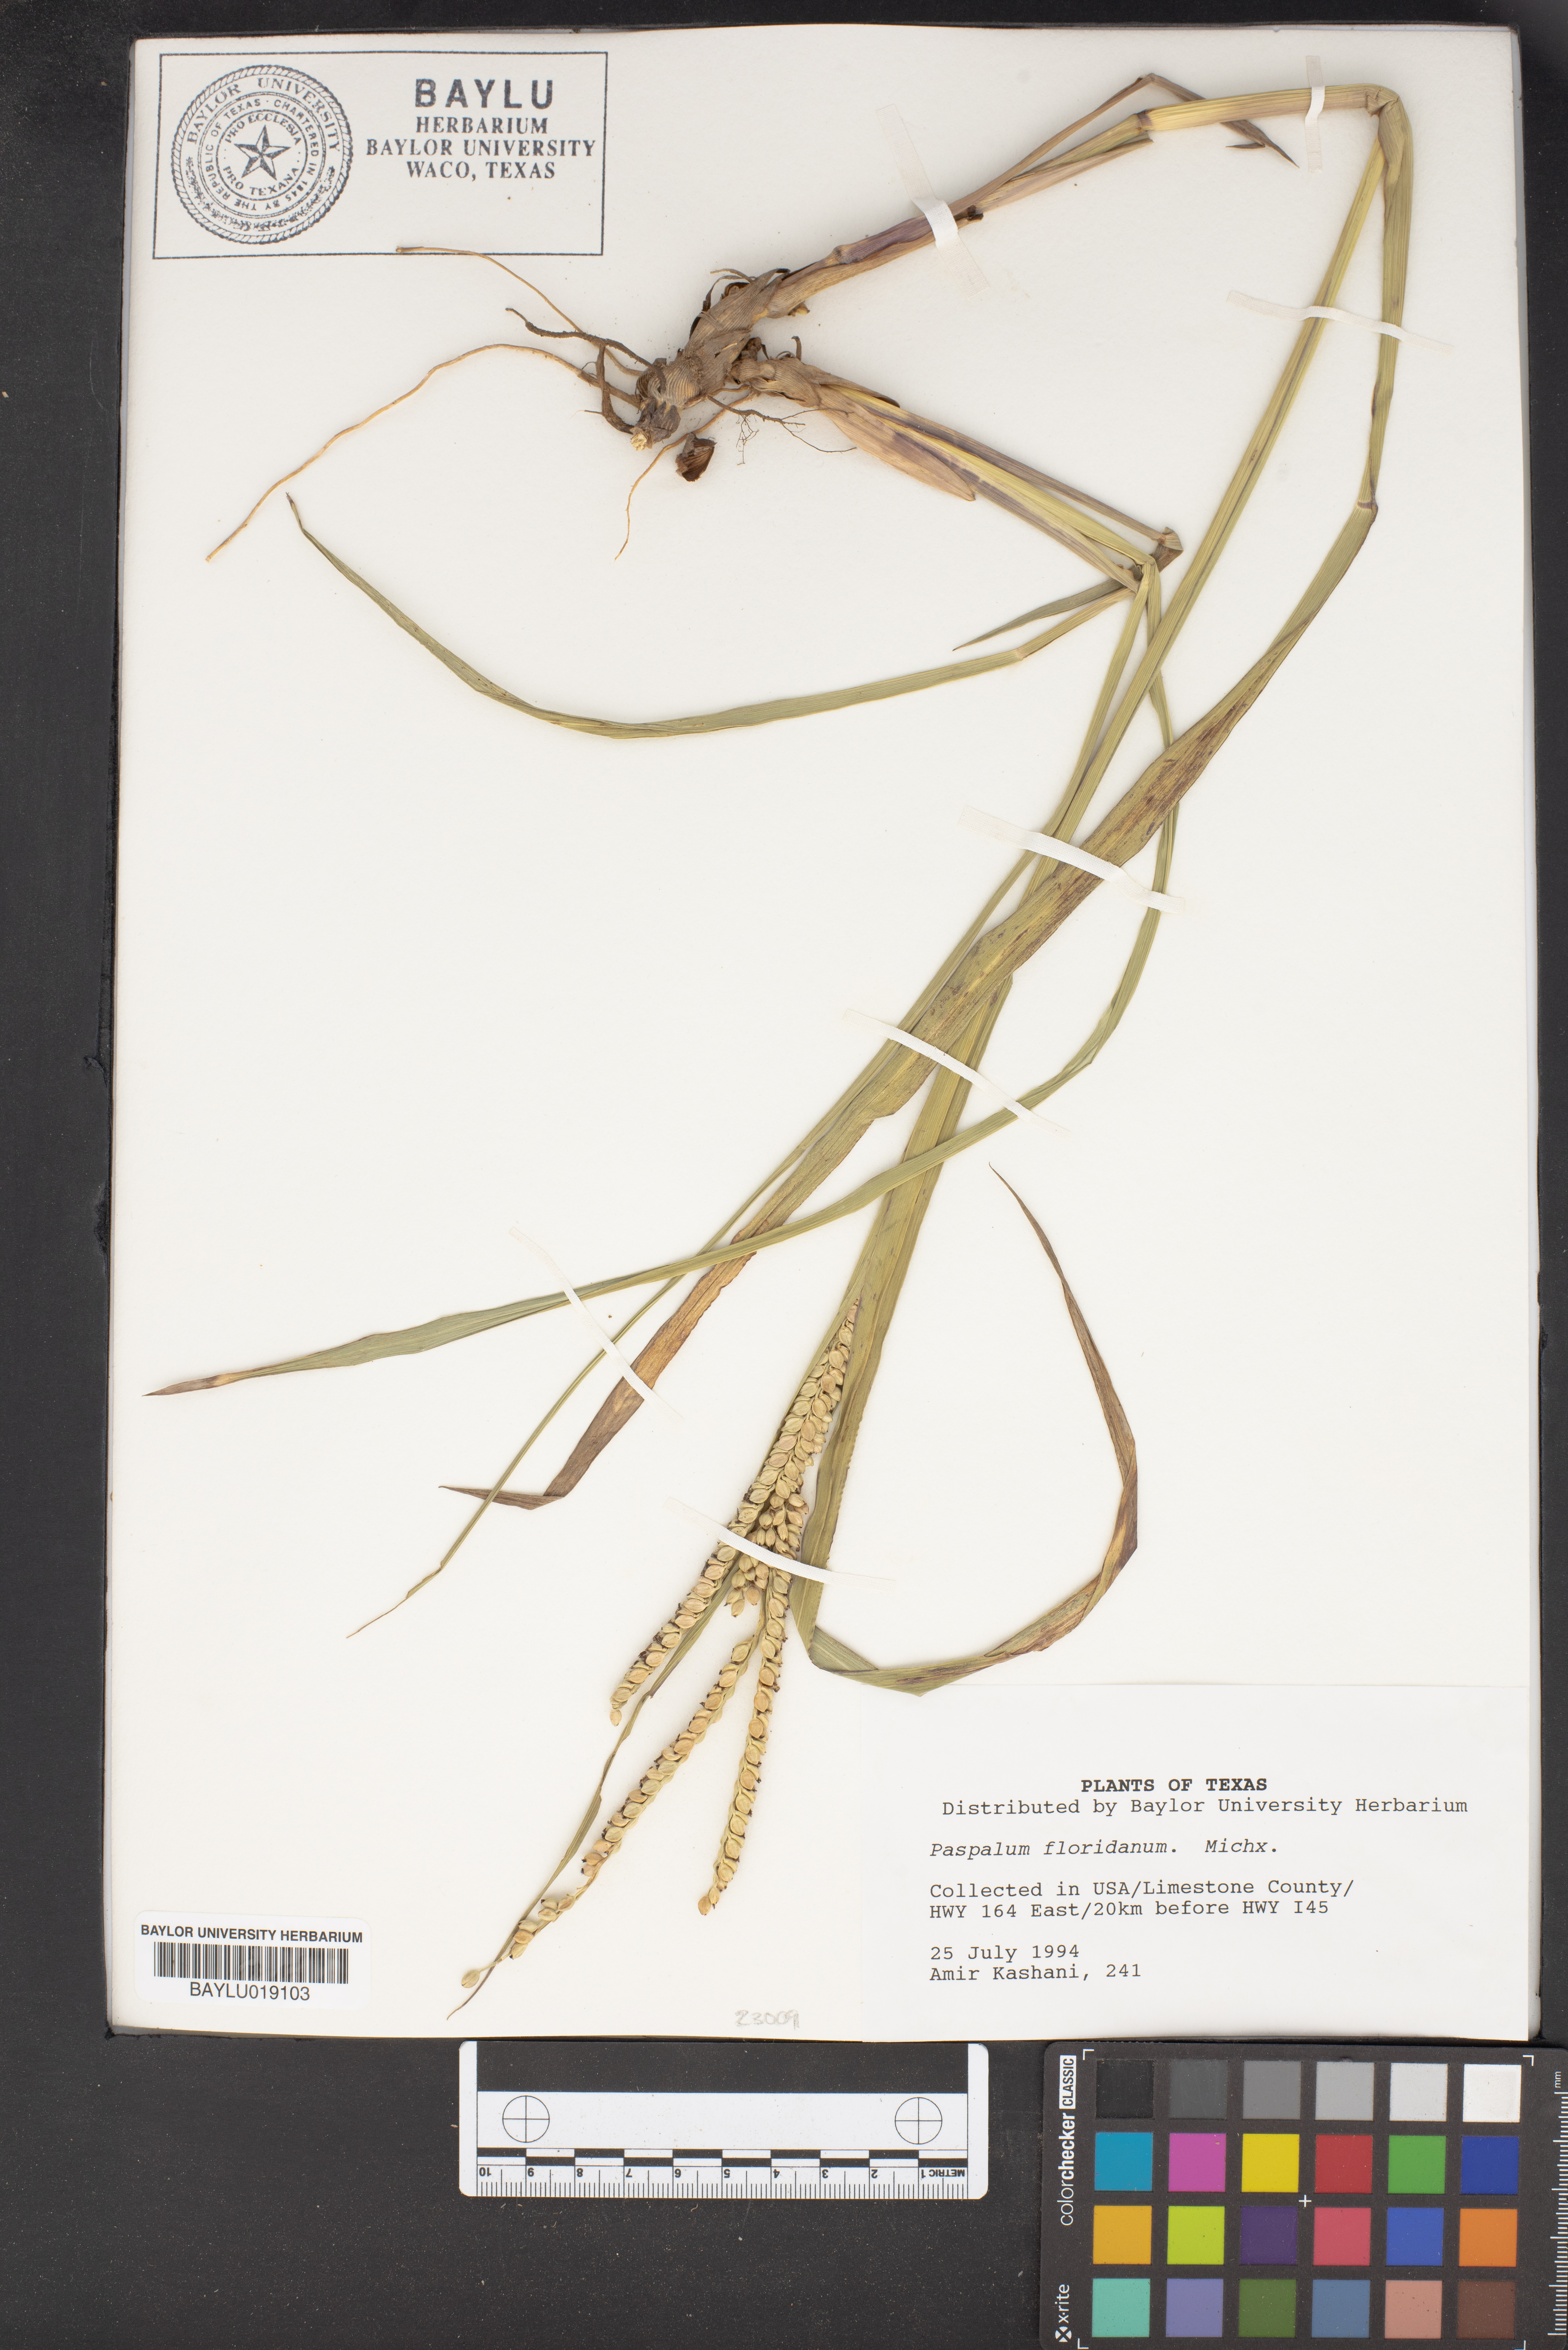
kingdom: Plantae
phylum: Tracheophyta
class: Liliopsida
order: Poales
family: Poaceae
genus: Paspalum
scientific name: Paspalum floridanum
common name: Florida paspalum
